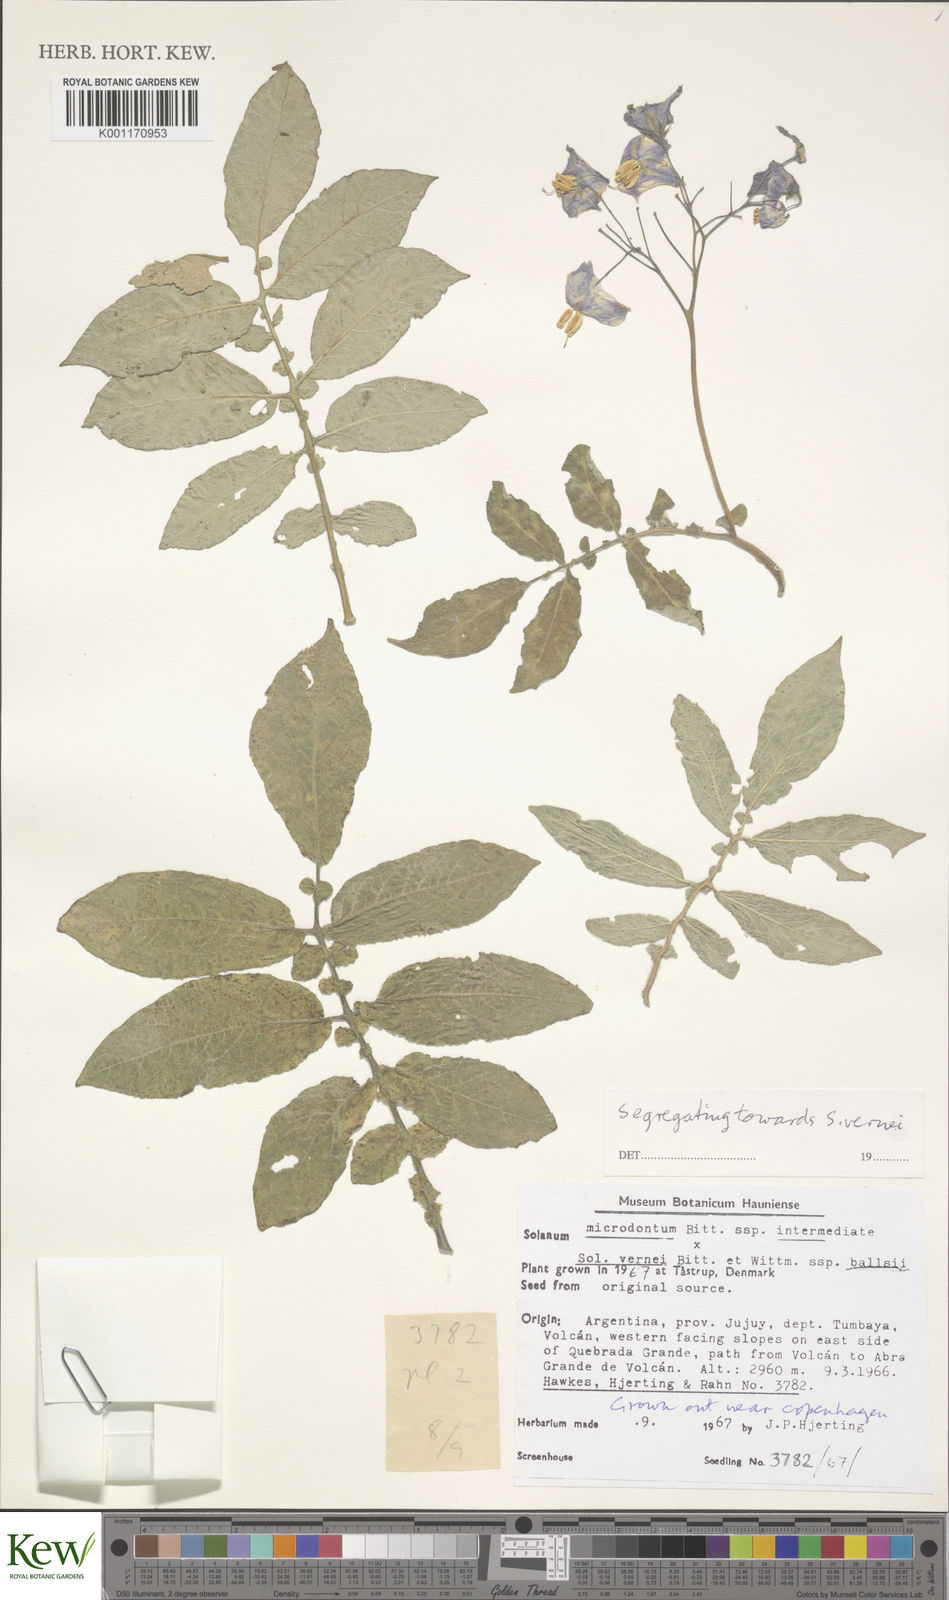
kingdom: Plantae
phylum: Tracheophyta
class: Magnoliopsida
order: Solanales
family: Solanaceae
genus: Solanum
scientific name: Solanum vernei
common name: Purple potato
